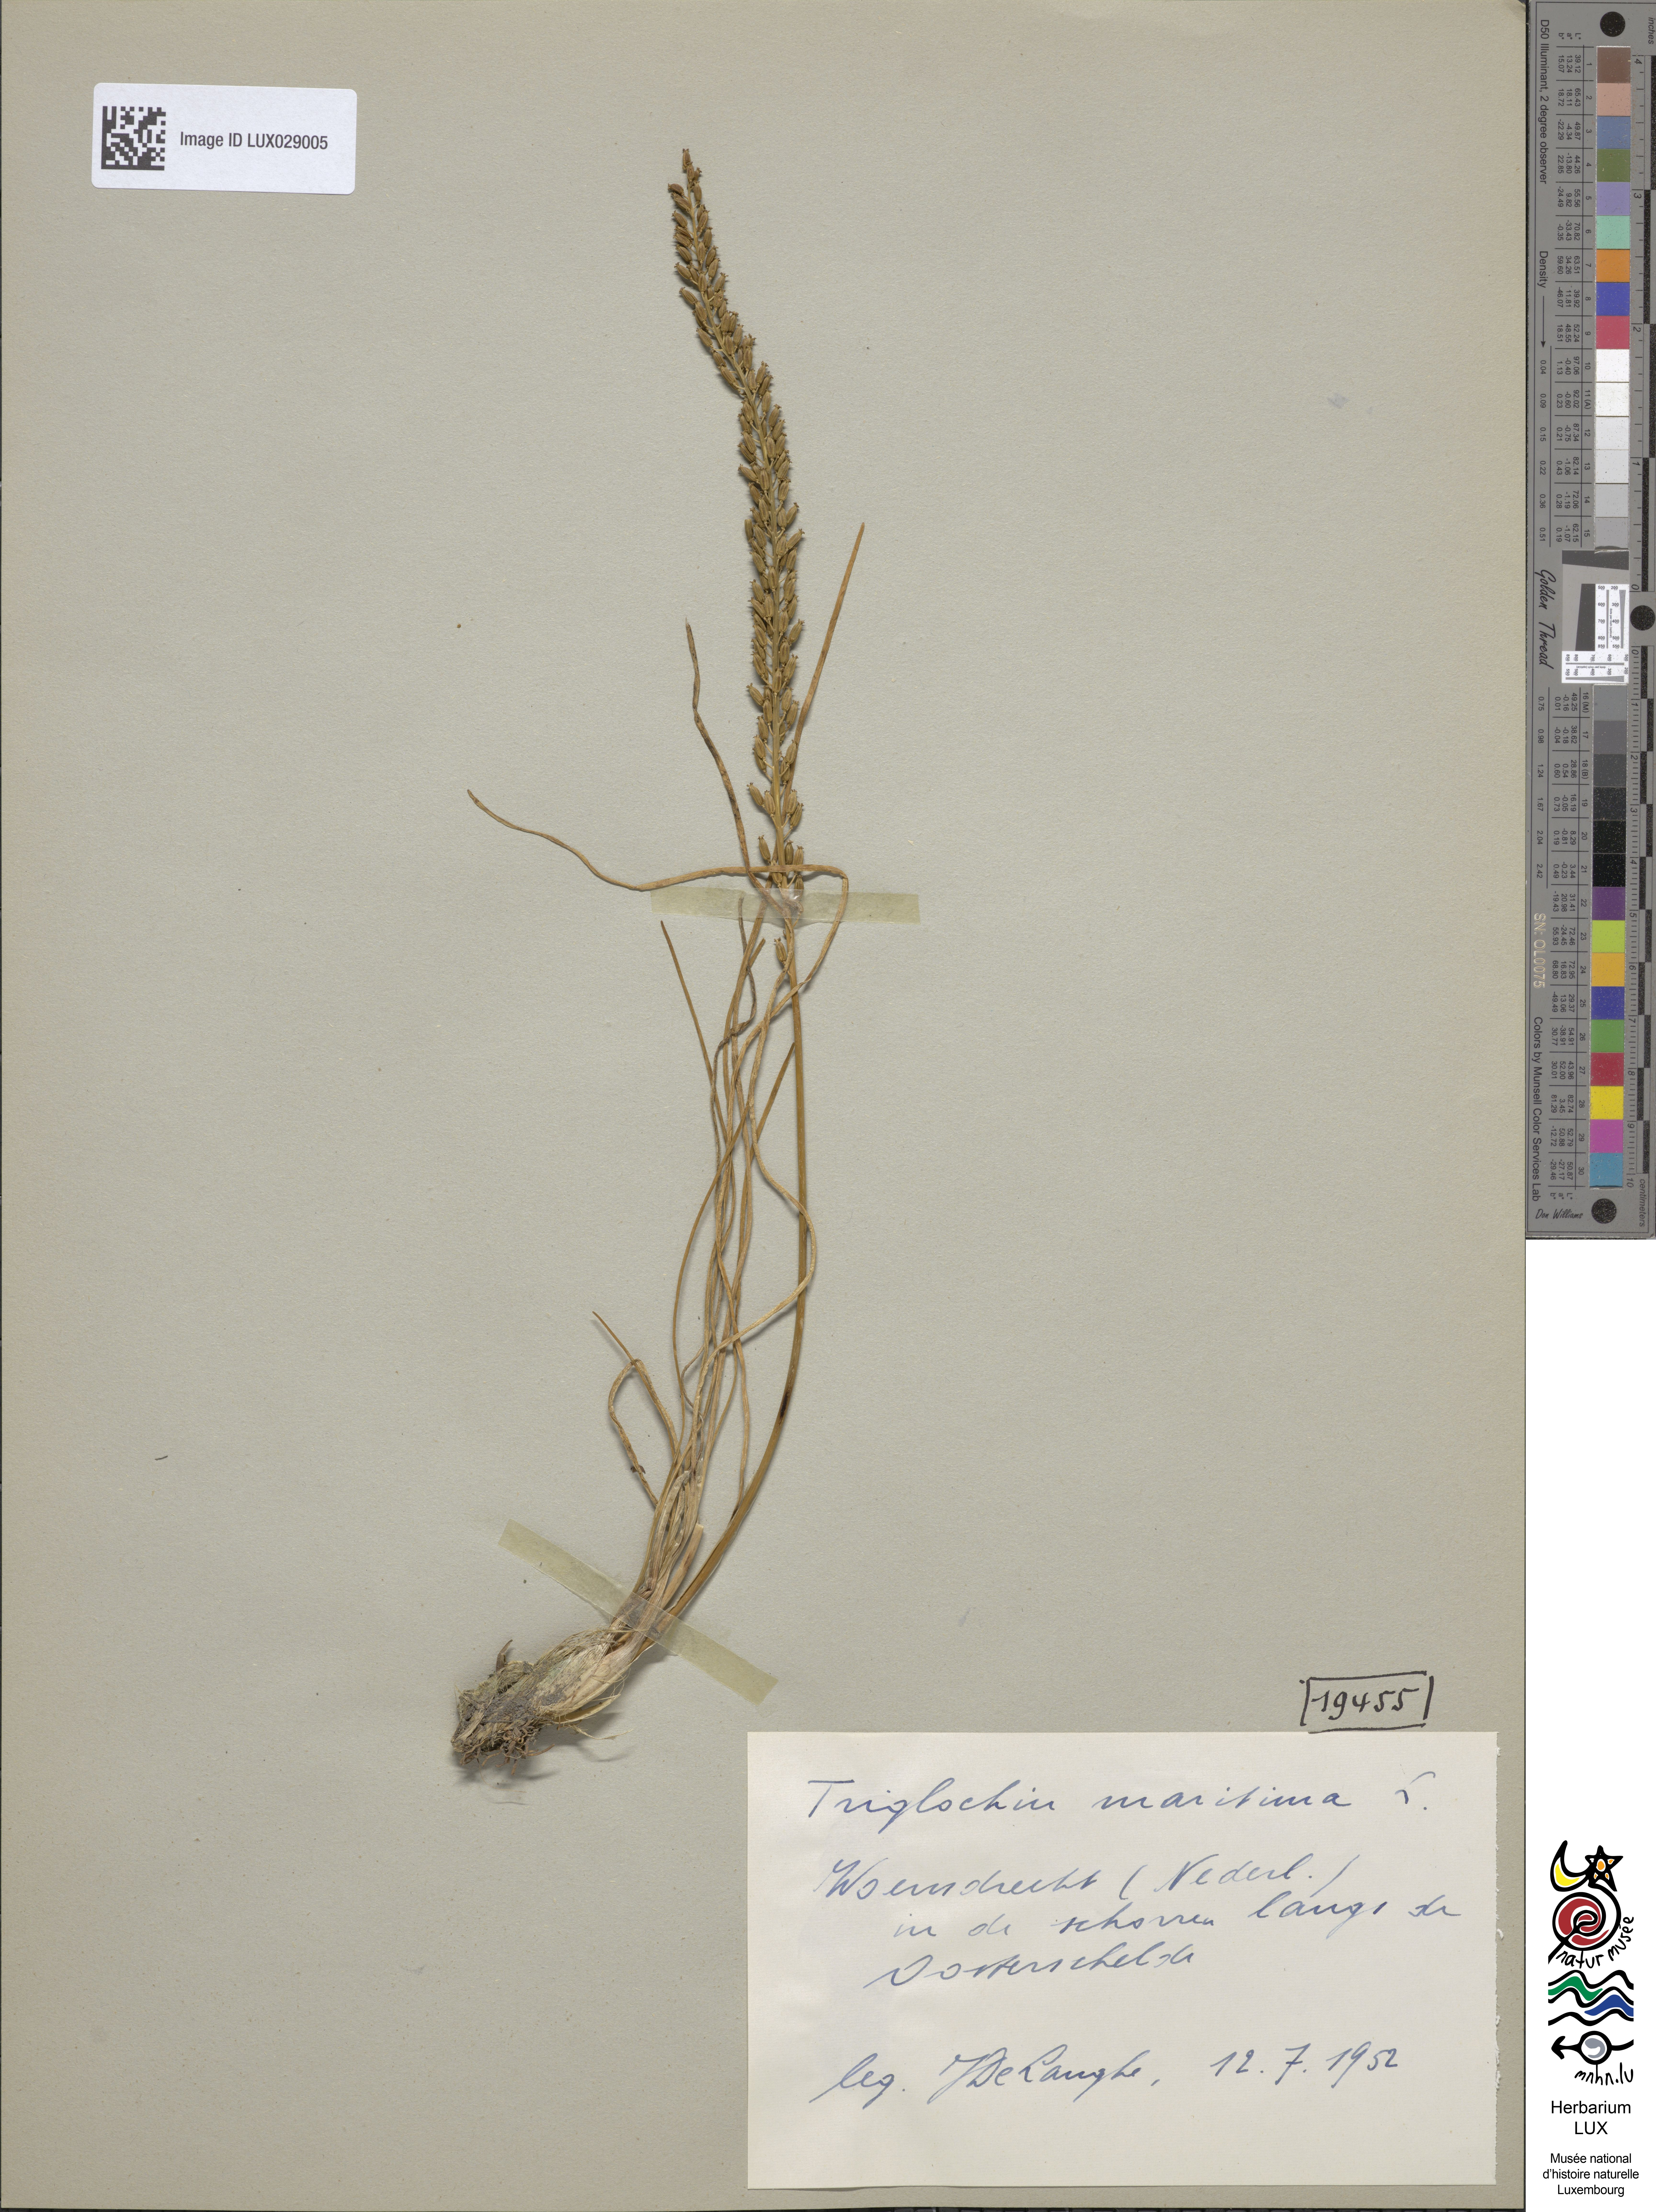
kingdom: Plantae
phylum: Tracheophyta
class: Liliopsida
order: Alismatales
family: Juncaginaceae
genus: Triglochin
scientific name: Triglochin maritima
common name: Sea arrowgrass
